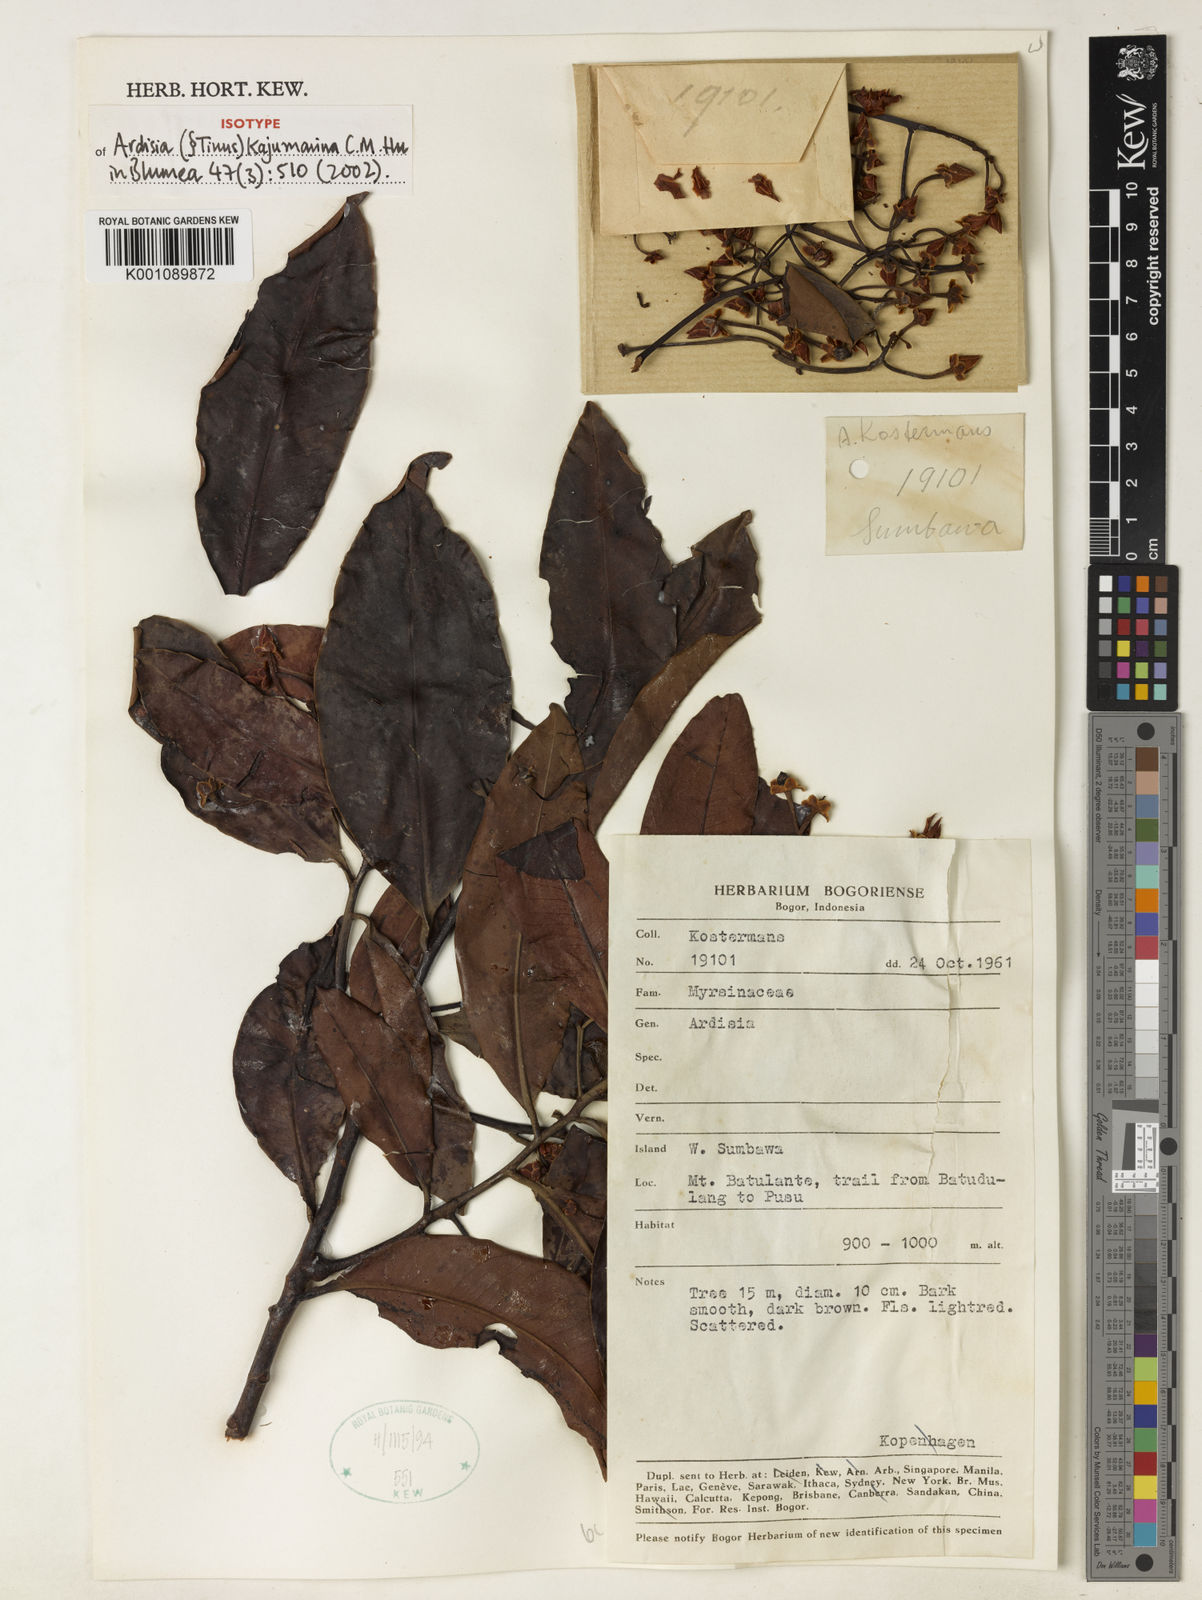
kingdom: Plantae
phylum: Tracheophyta
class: Magnoliopsida
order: Ericales
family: Primulaceae
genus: Ardisia
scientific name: Ardisia kajumarina
